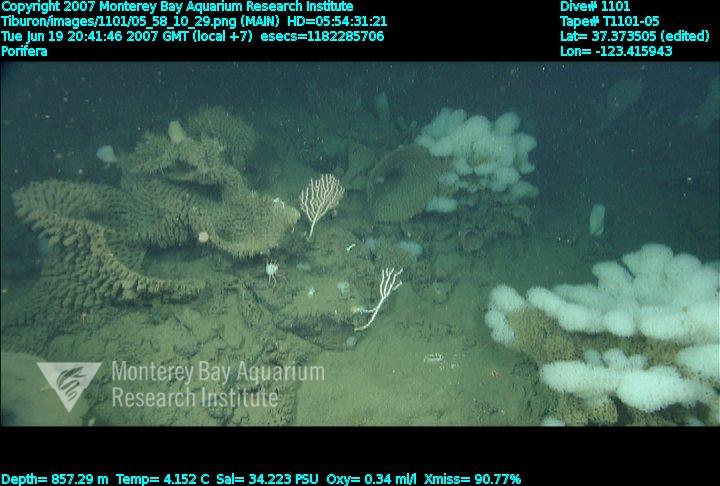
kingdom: Animalia
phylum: Porifera
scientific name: Porifera
